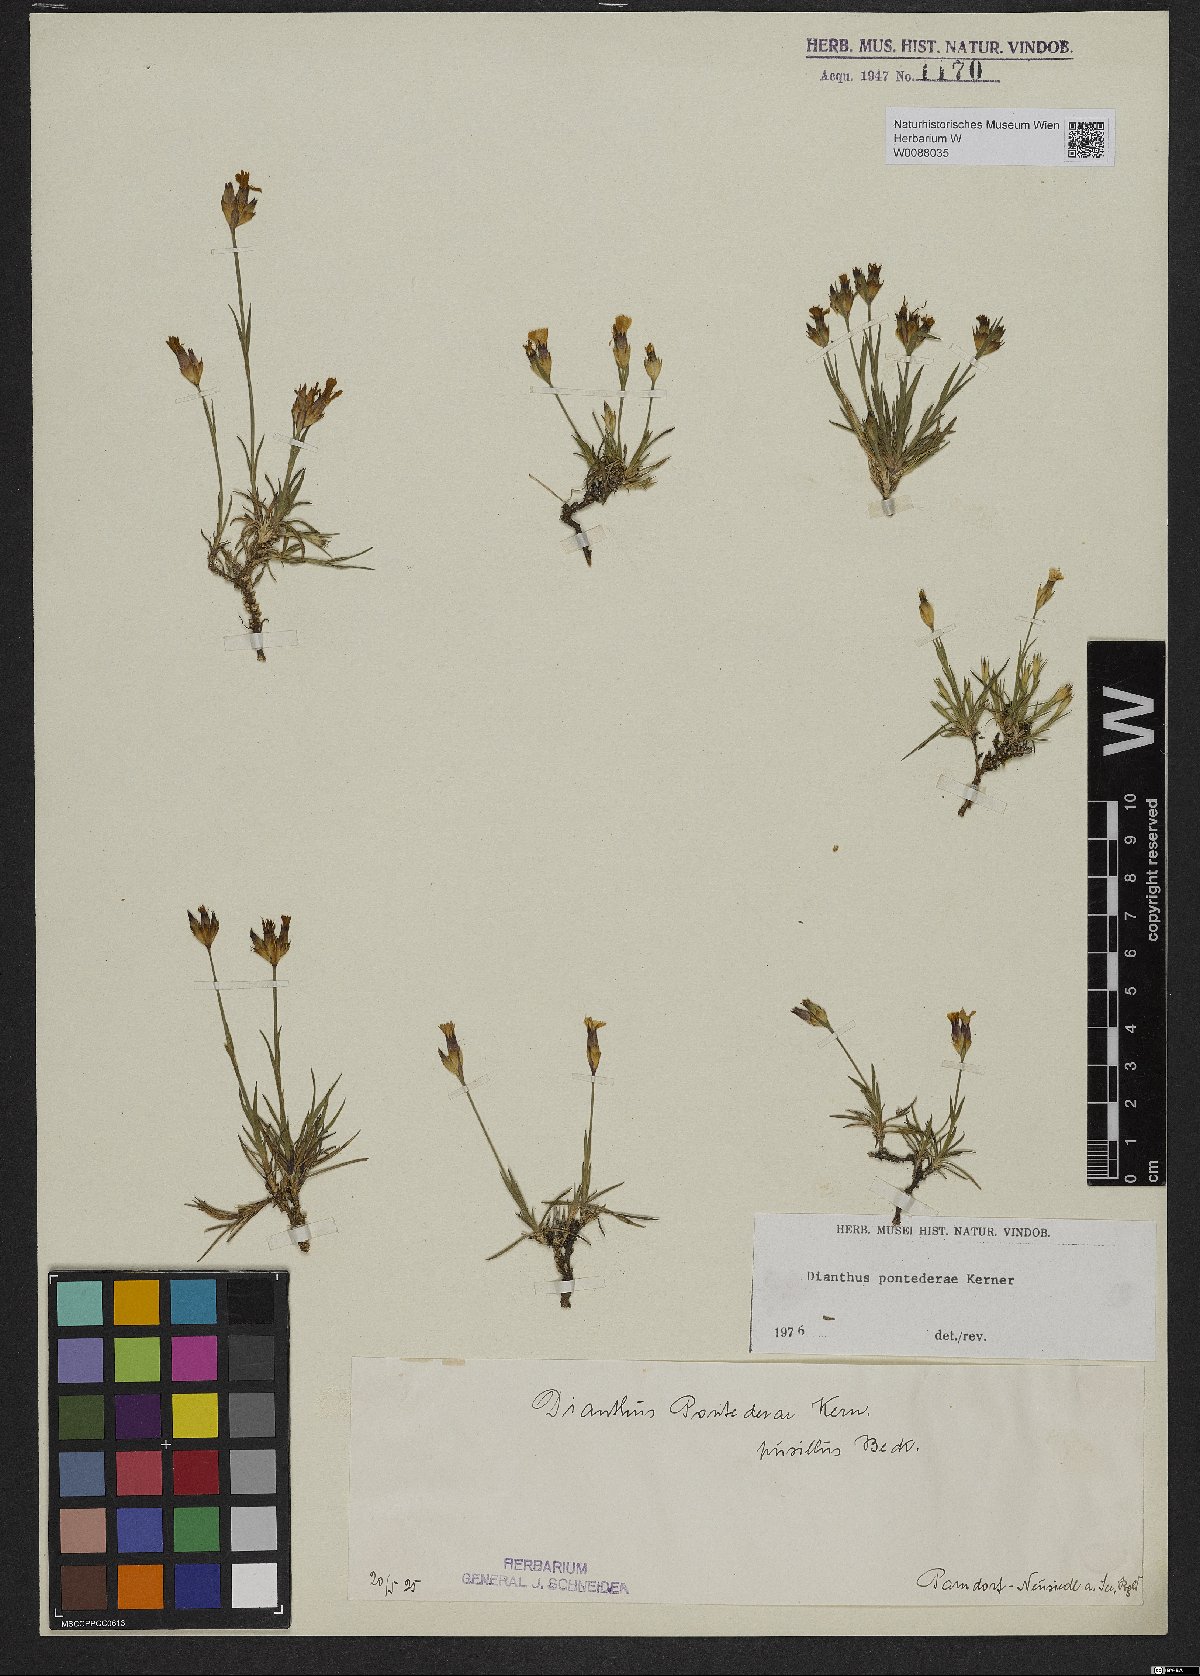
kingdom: Plantae
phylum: Tracheophyta
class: Magnoliopsida
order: Caryophyllales
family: Caryophyllaceae
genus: Dianthus
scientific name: Dianthus pontederae
